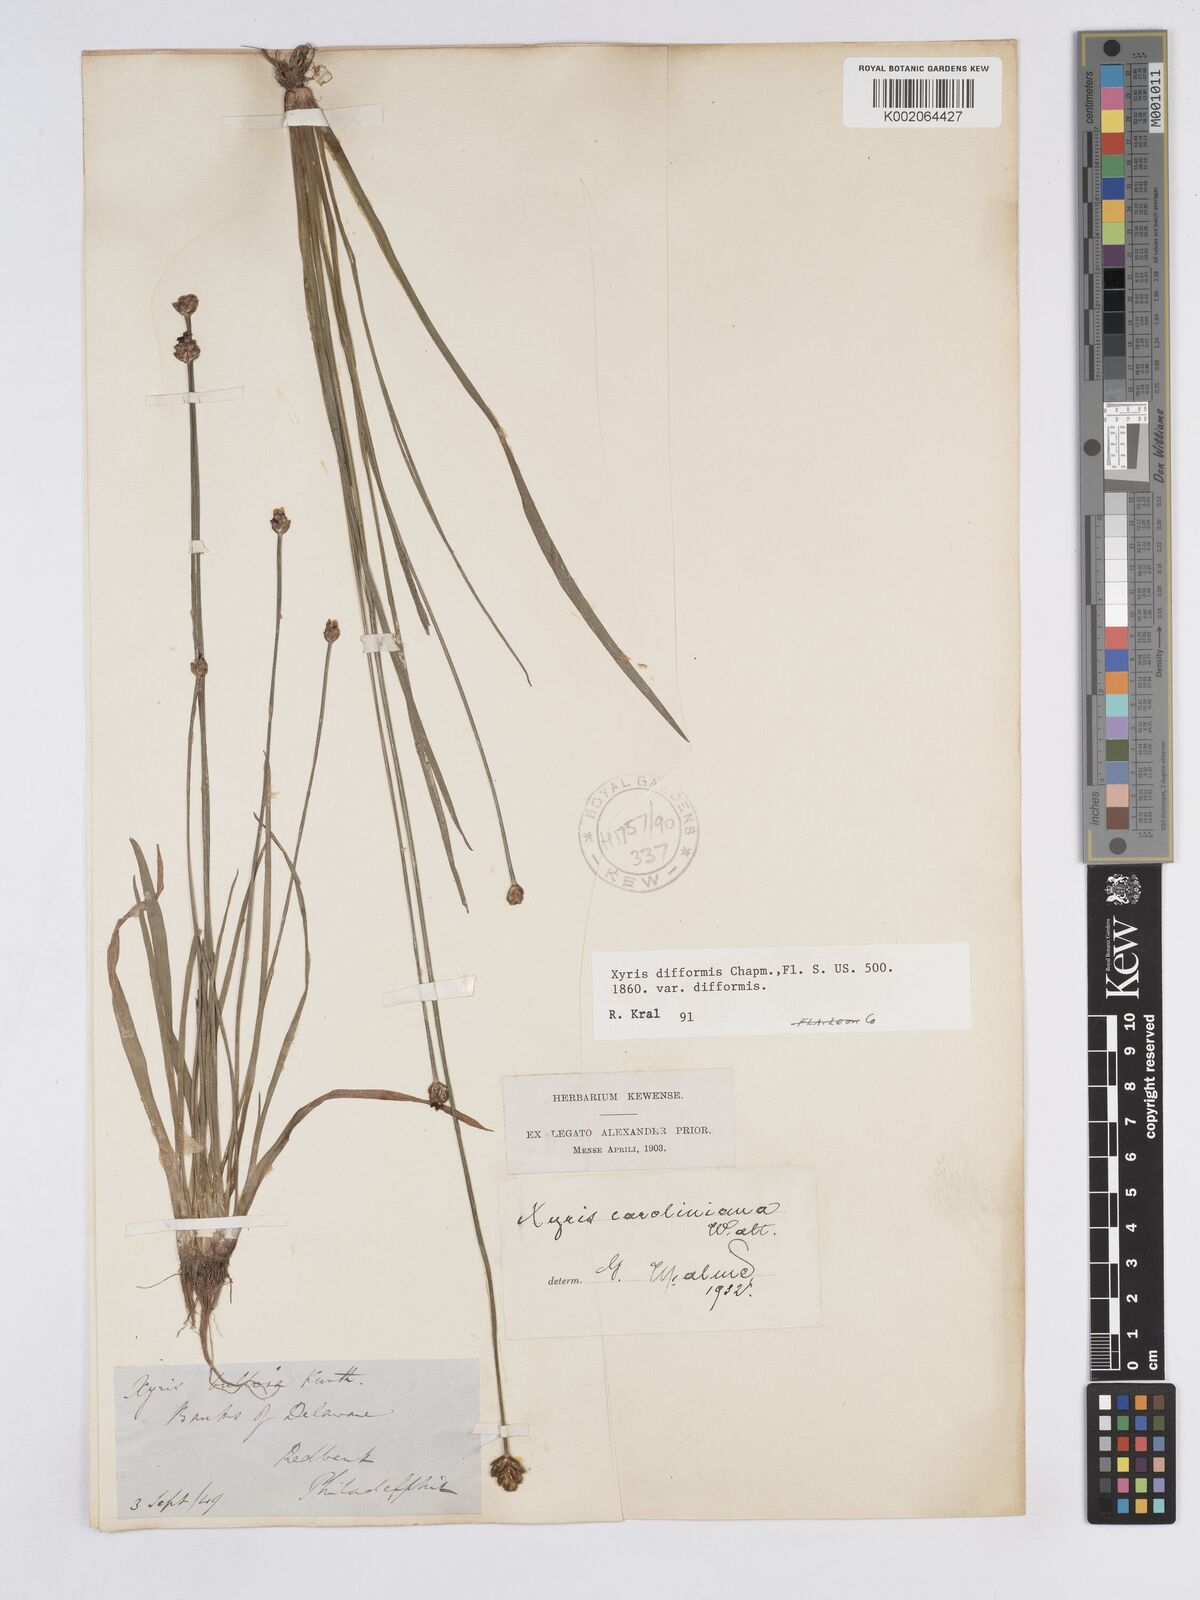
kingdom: Plantae
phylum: Tracheophyta
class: Liliopsida
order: Poales
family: Xyridaceae
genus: Xyris
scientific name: Xyris difformis
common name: Bog yellow-eyed-grass
